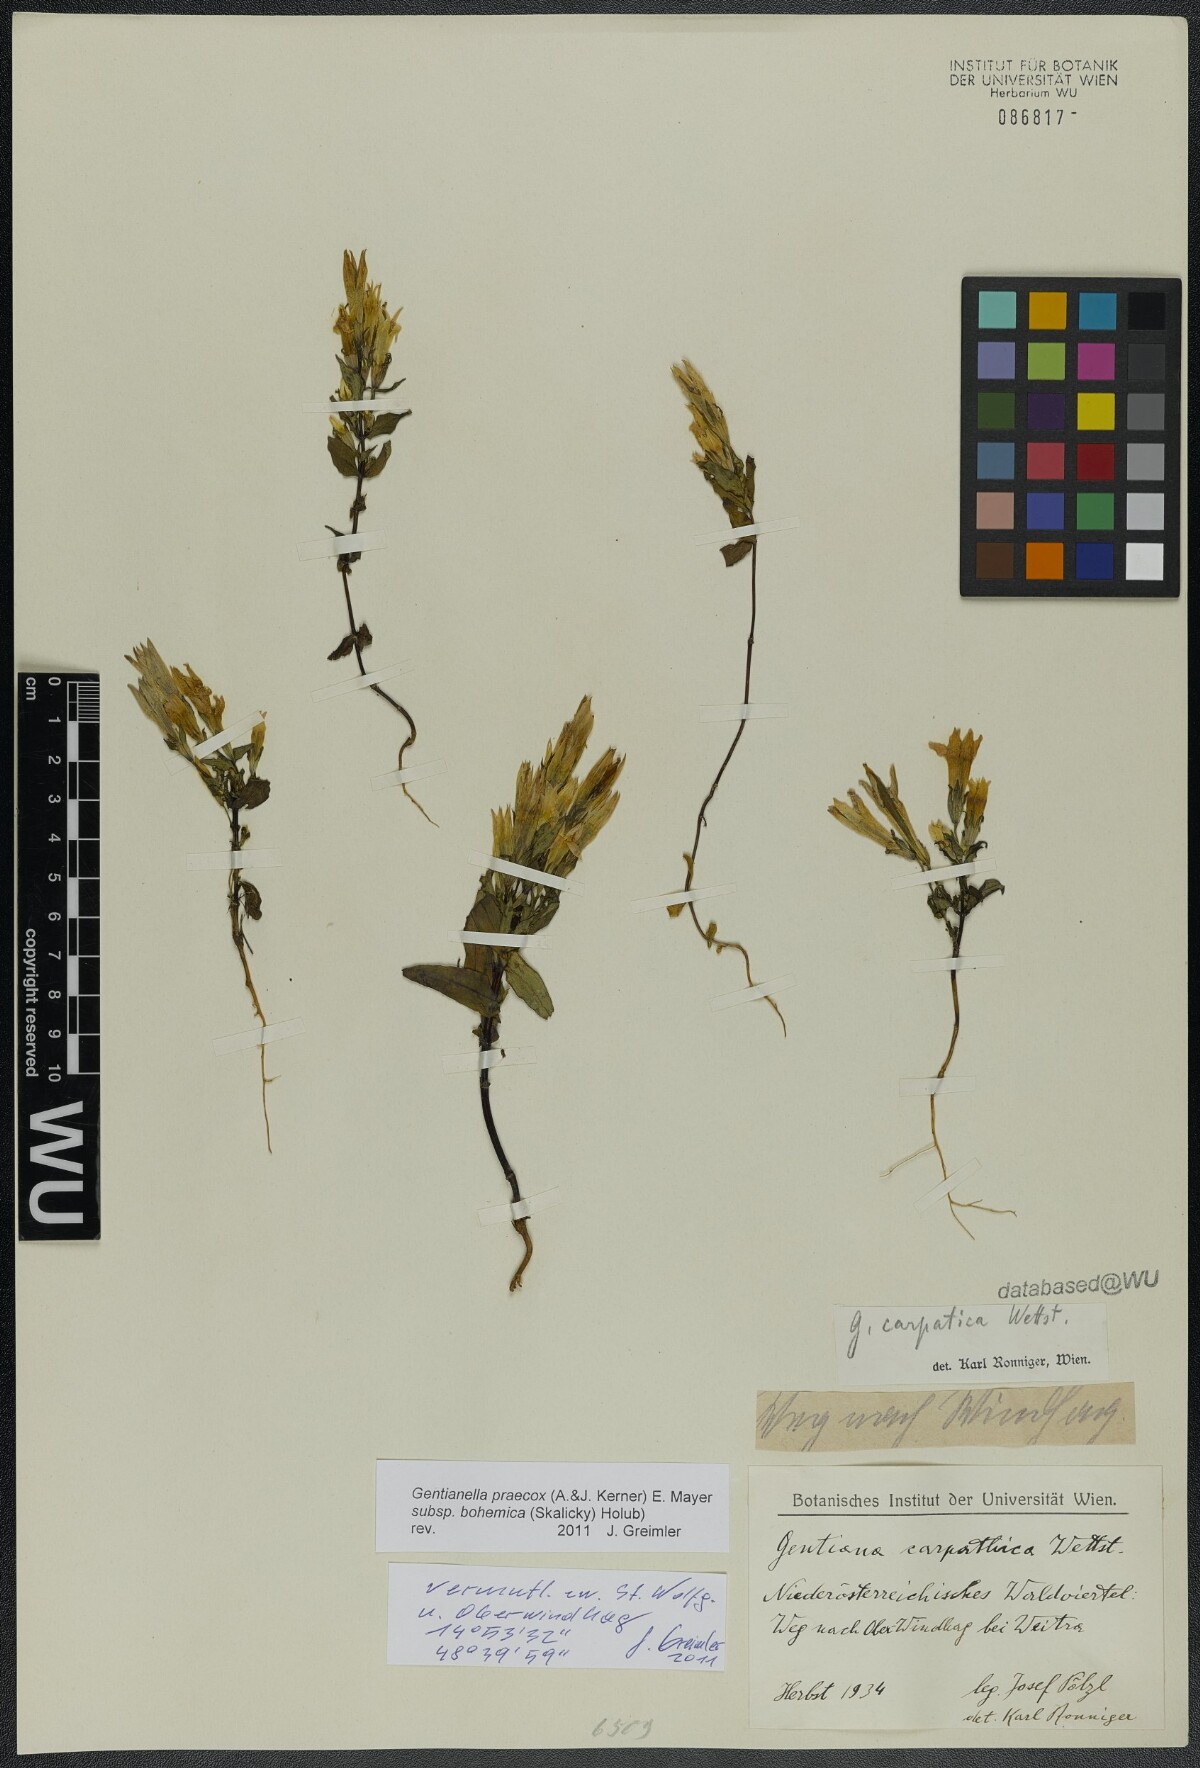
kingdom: Plantae
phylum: Tracheophyta
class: Magnoliopsida
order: Gentianales
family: Gentianaceae
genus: Gentianella
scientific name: Gentianella praecox
